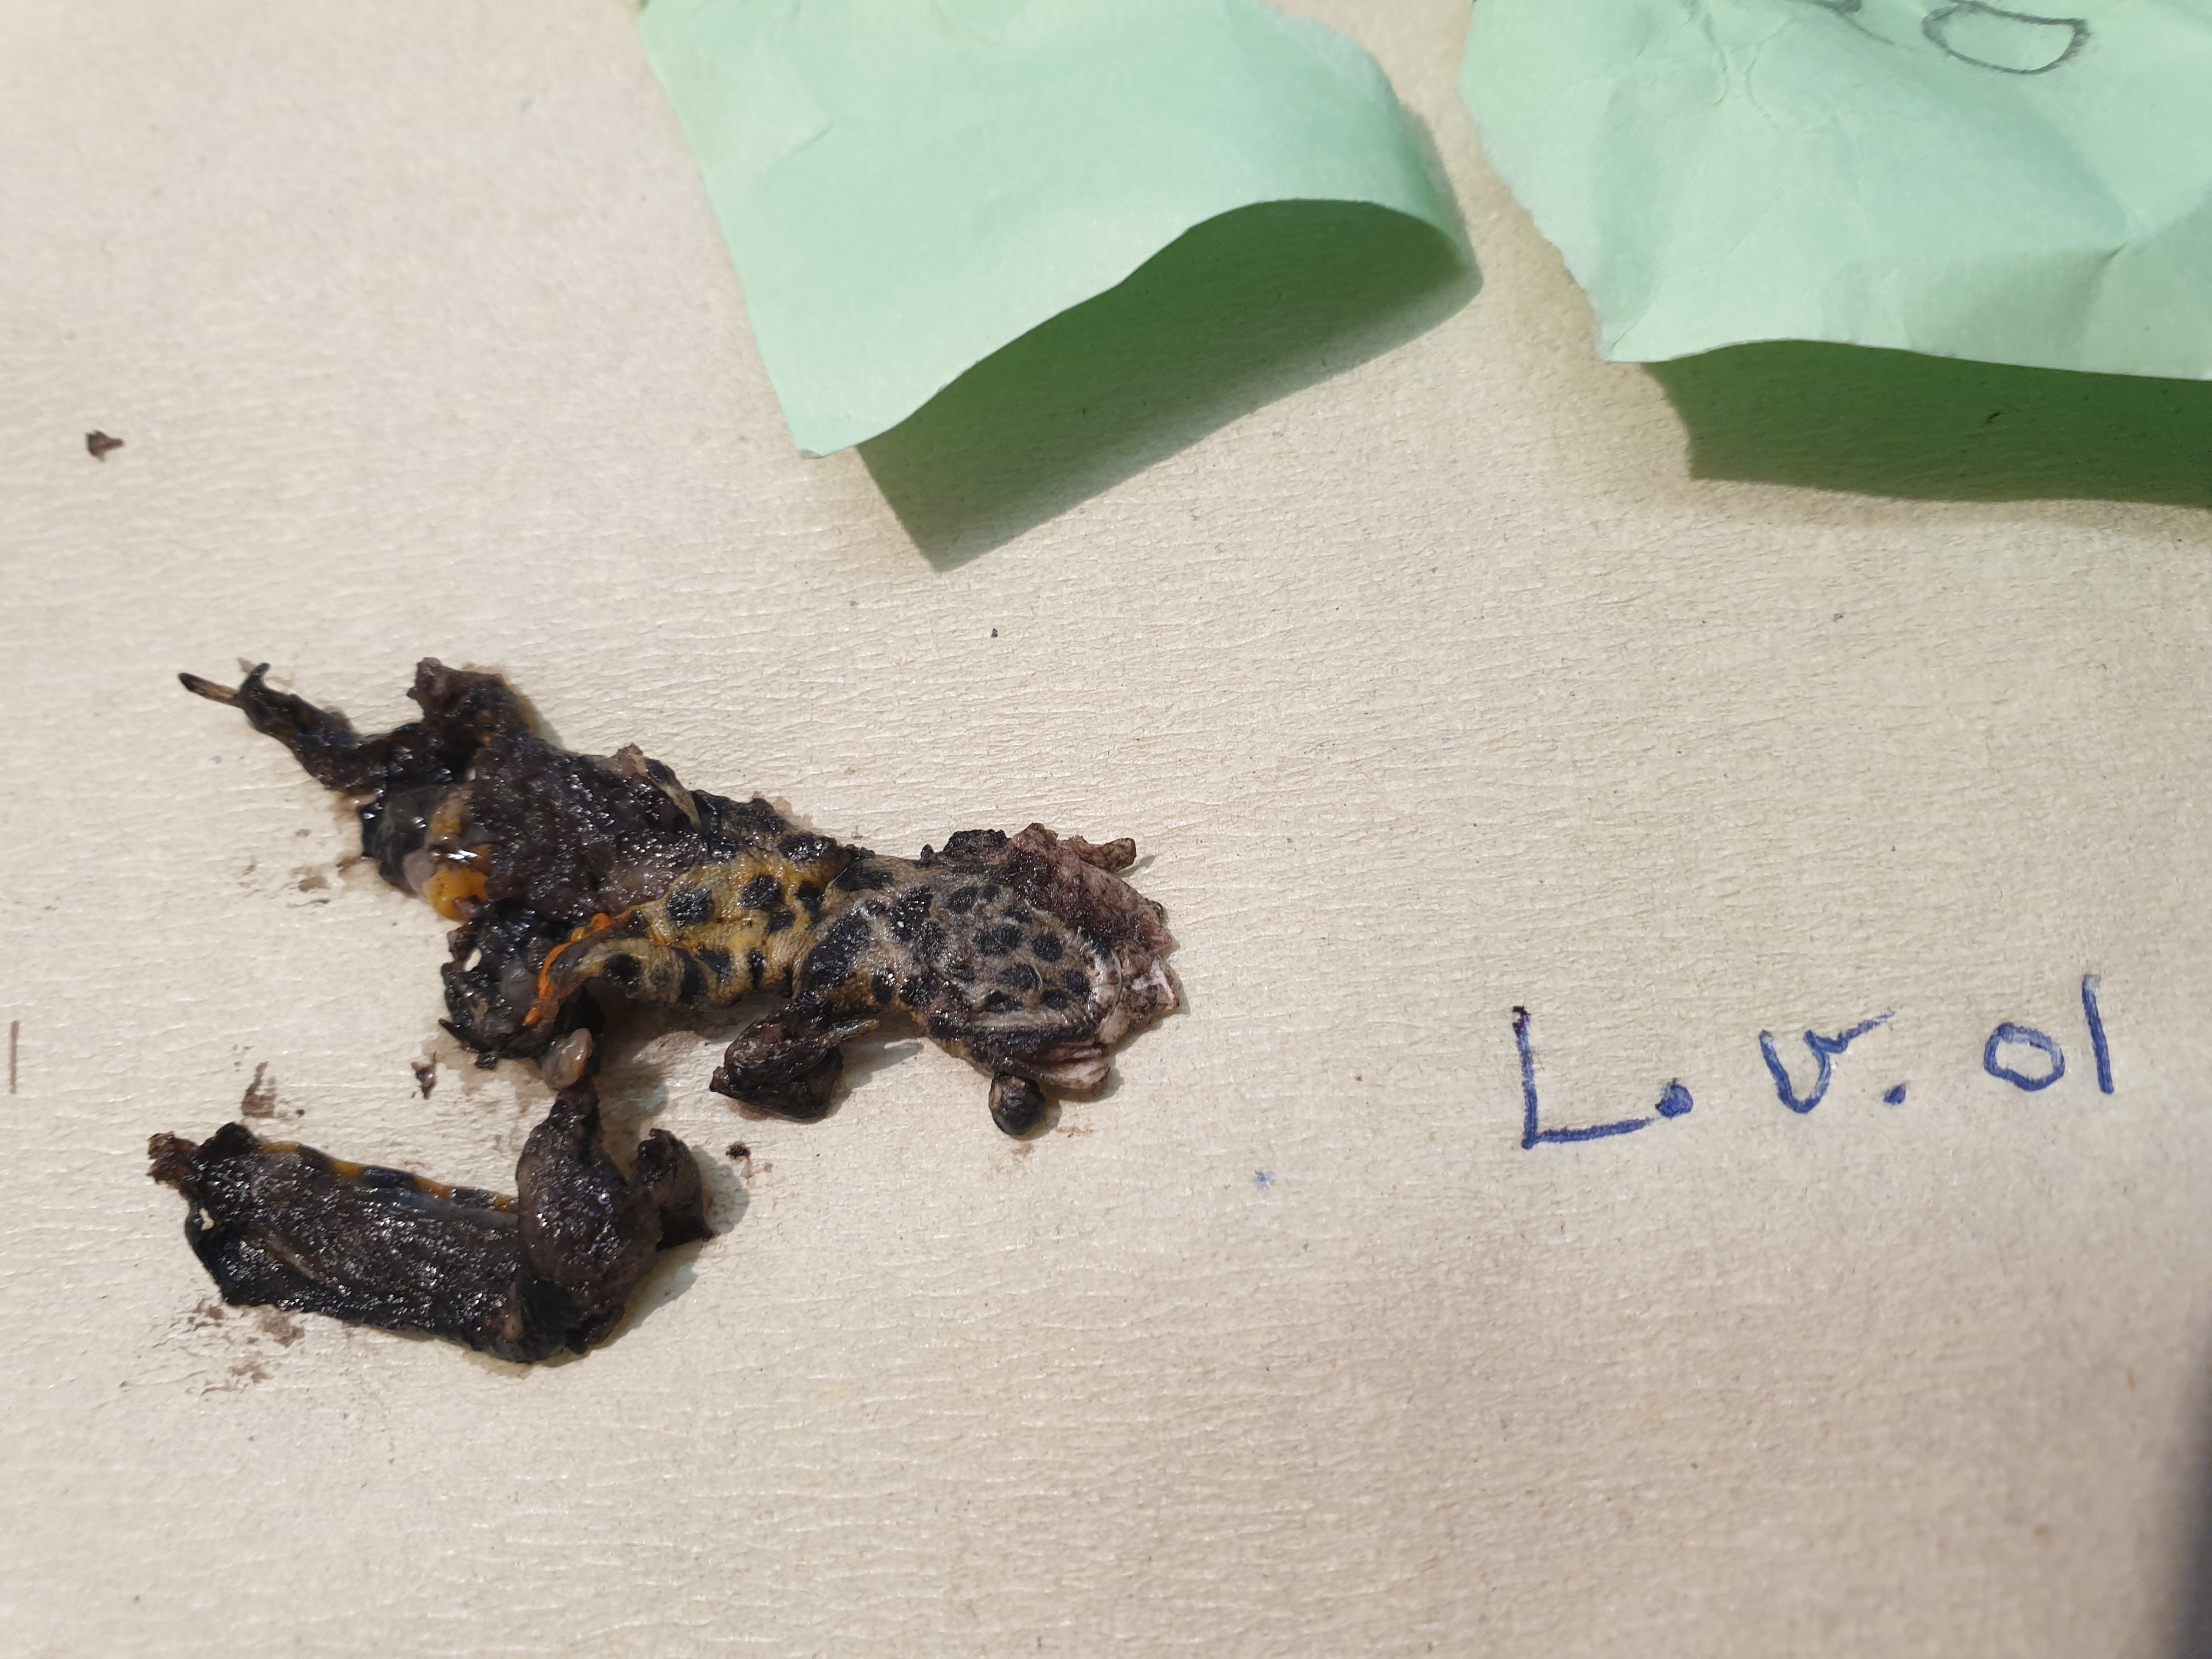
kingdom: Animalia
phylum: Chordata
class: Amphibia
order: Caudata
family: Salamandridae
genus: Lissotriton
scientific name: Lissotriton vulgaris
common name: Smooth newt
